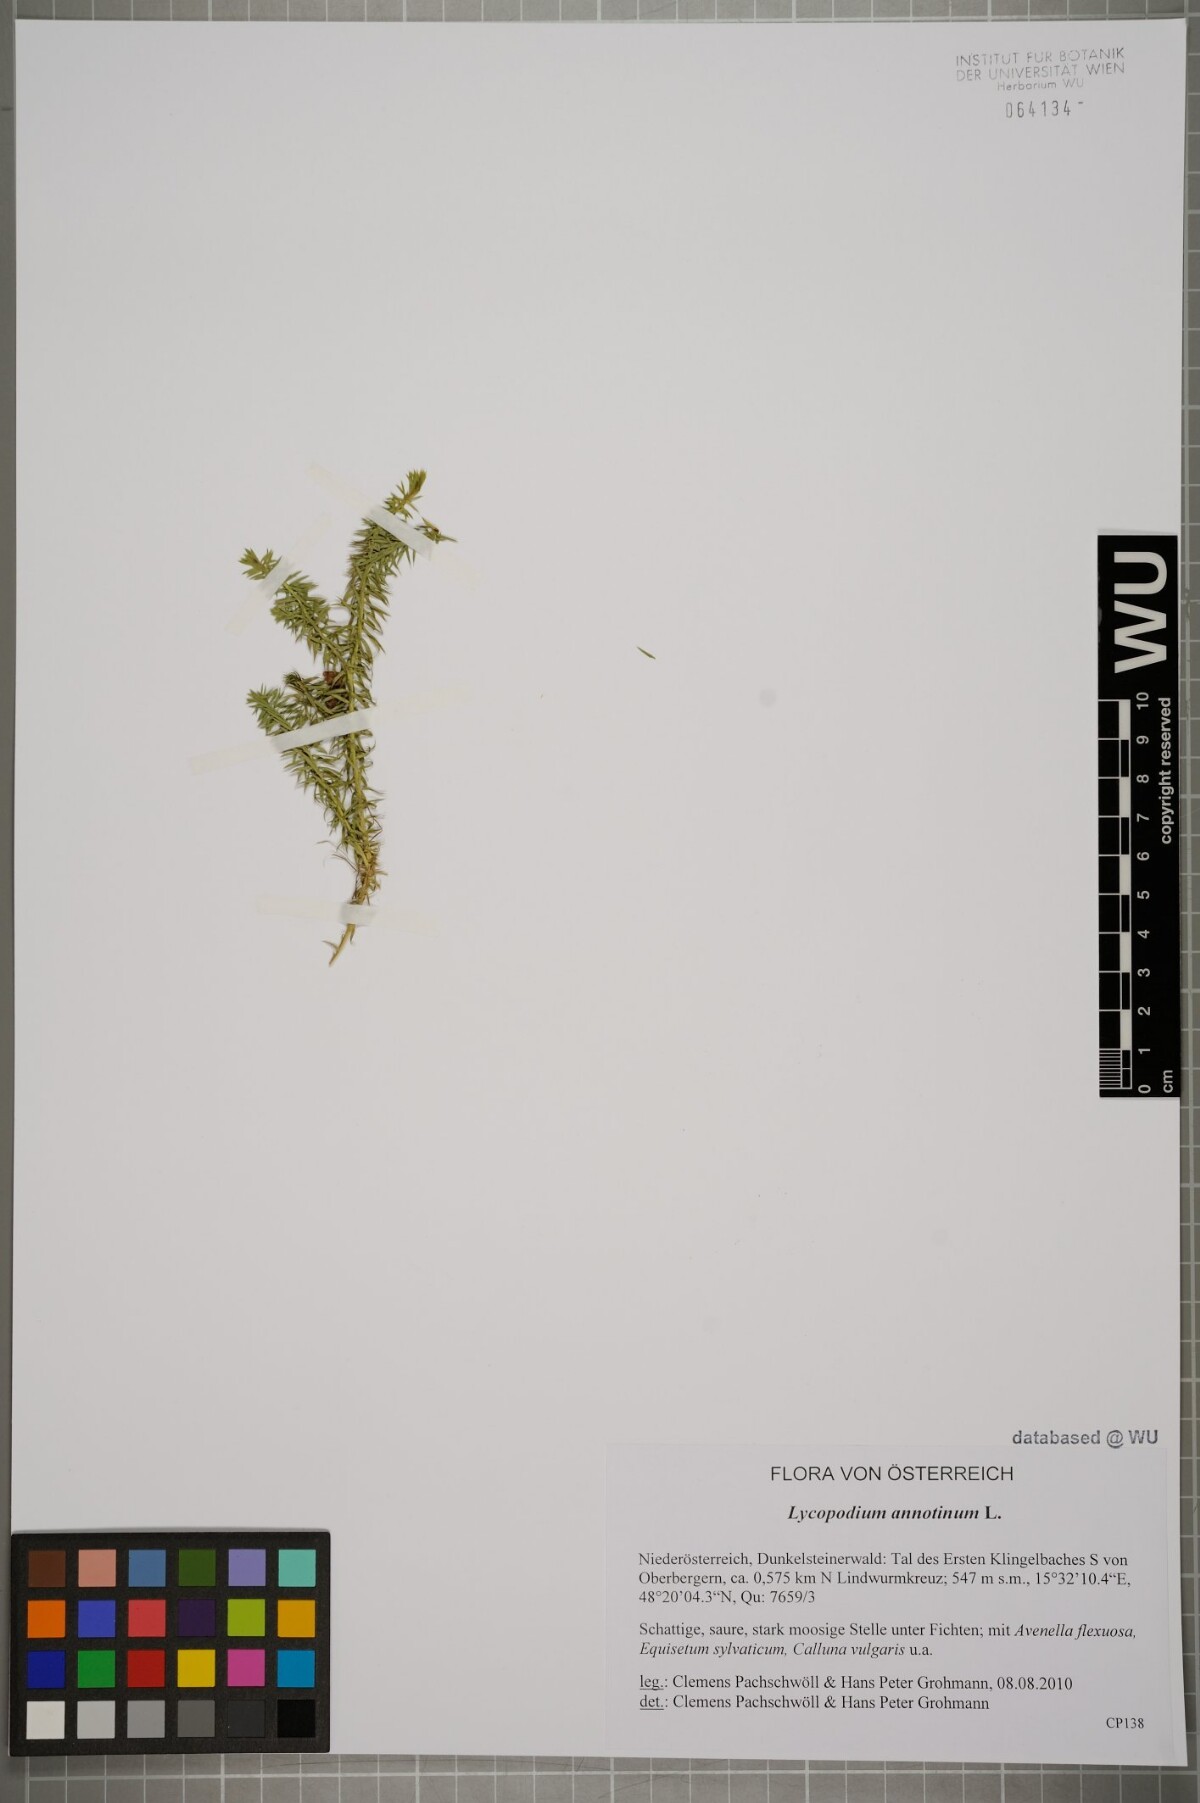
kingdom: Plantae
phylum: Tracheophyta
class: Lycopodiopsida
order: Lycopodiales
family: Lycopodiaceae
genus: Spinulum
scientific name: Spinulum annotinum
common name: Interrupted club-moss
